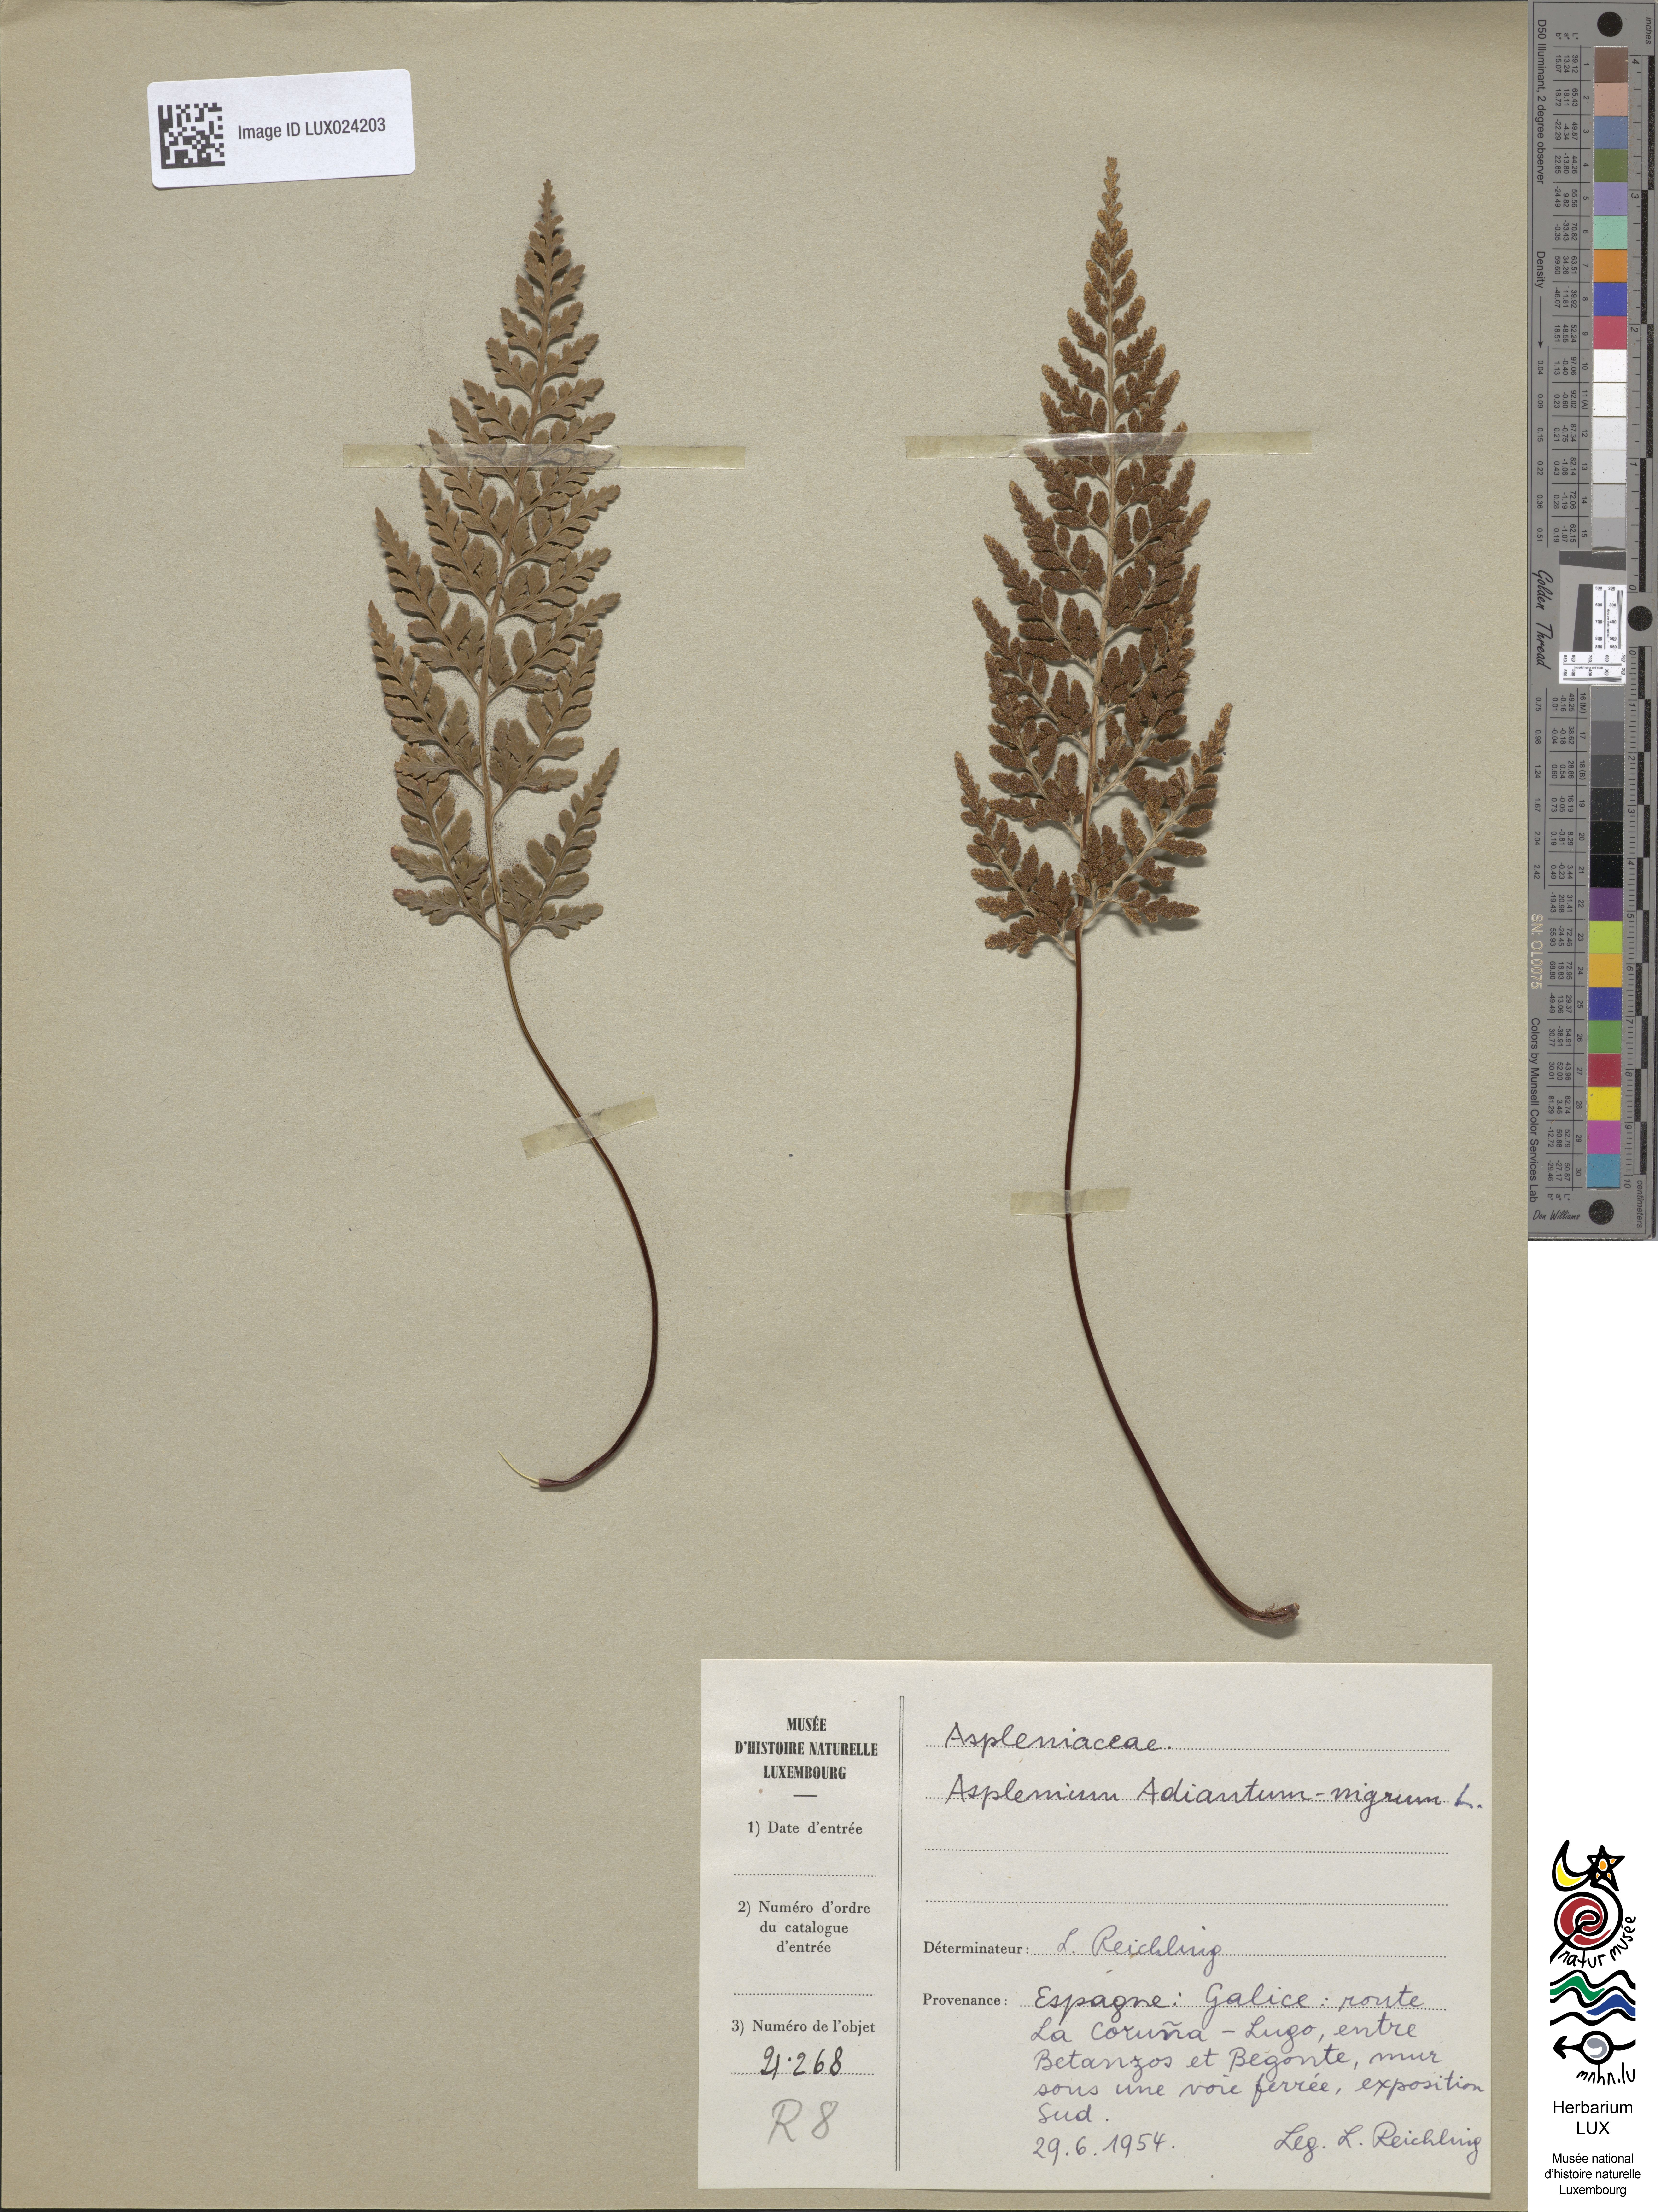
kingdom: Plantae
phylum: Tracheophyta
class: Polypodiopsida
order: Polypodiales
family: Aspleniaceae
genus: Asplenium
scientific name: Asplenium adiantum-nigrum
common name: Black spleenwort
